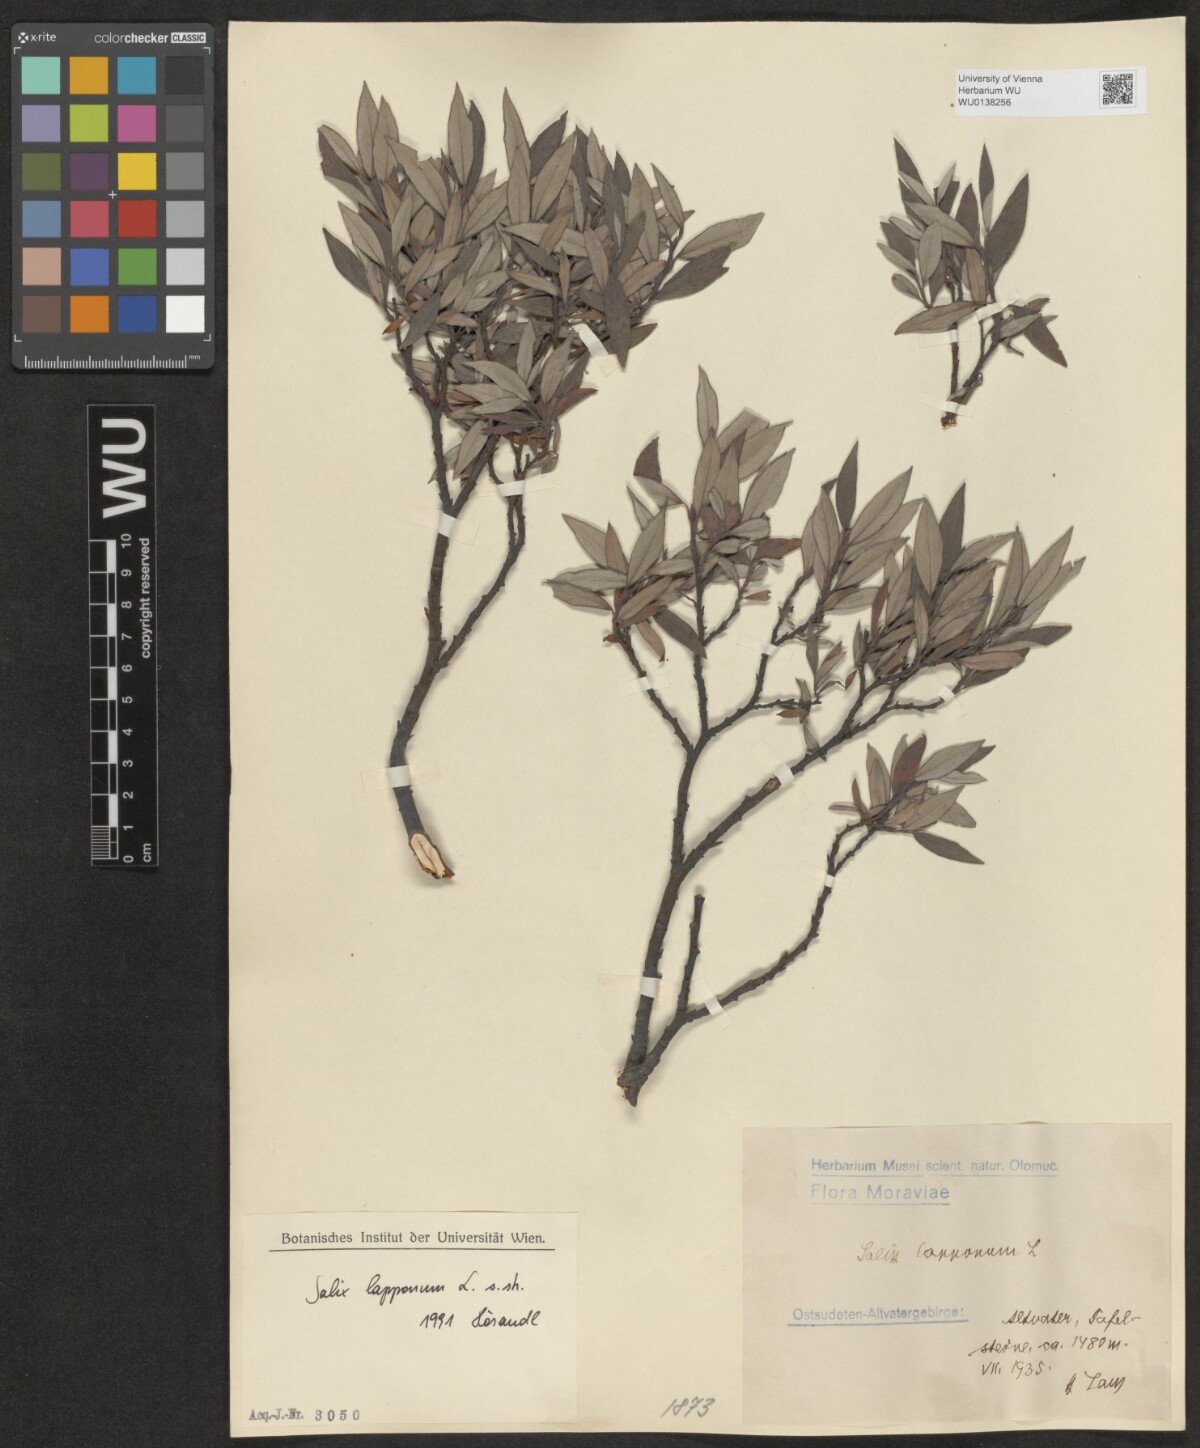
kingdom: Plantae
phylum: Tracheophyta
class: Magnoliopsida
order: Malpighiales
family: Salicaceae
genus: Salix
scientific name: Salix lapponum
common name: Downy willow
